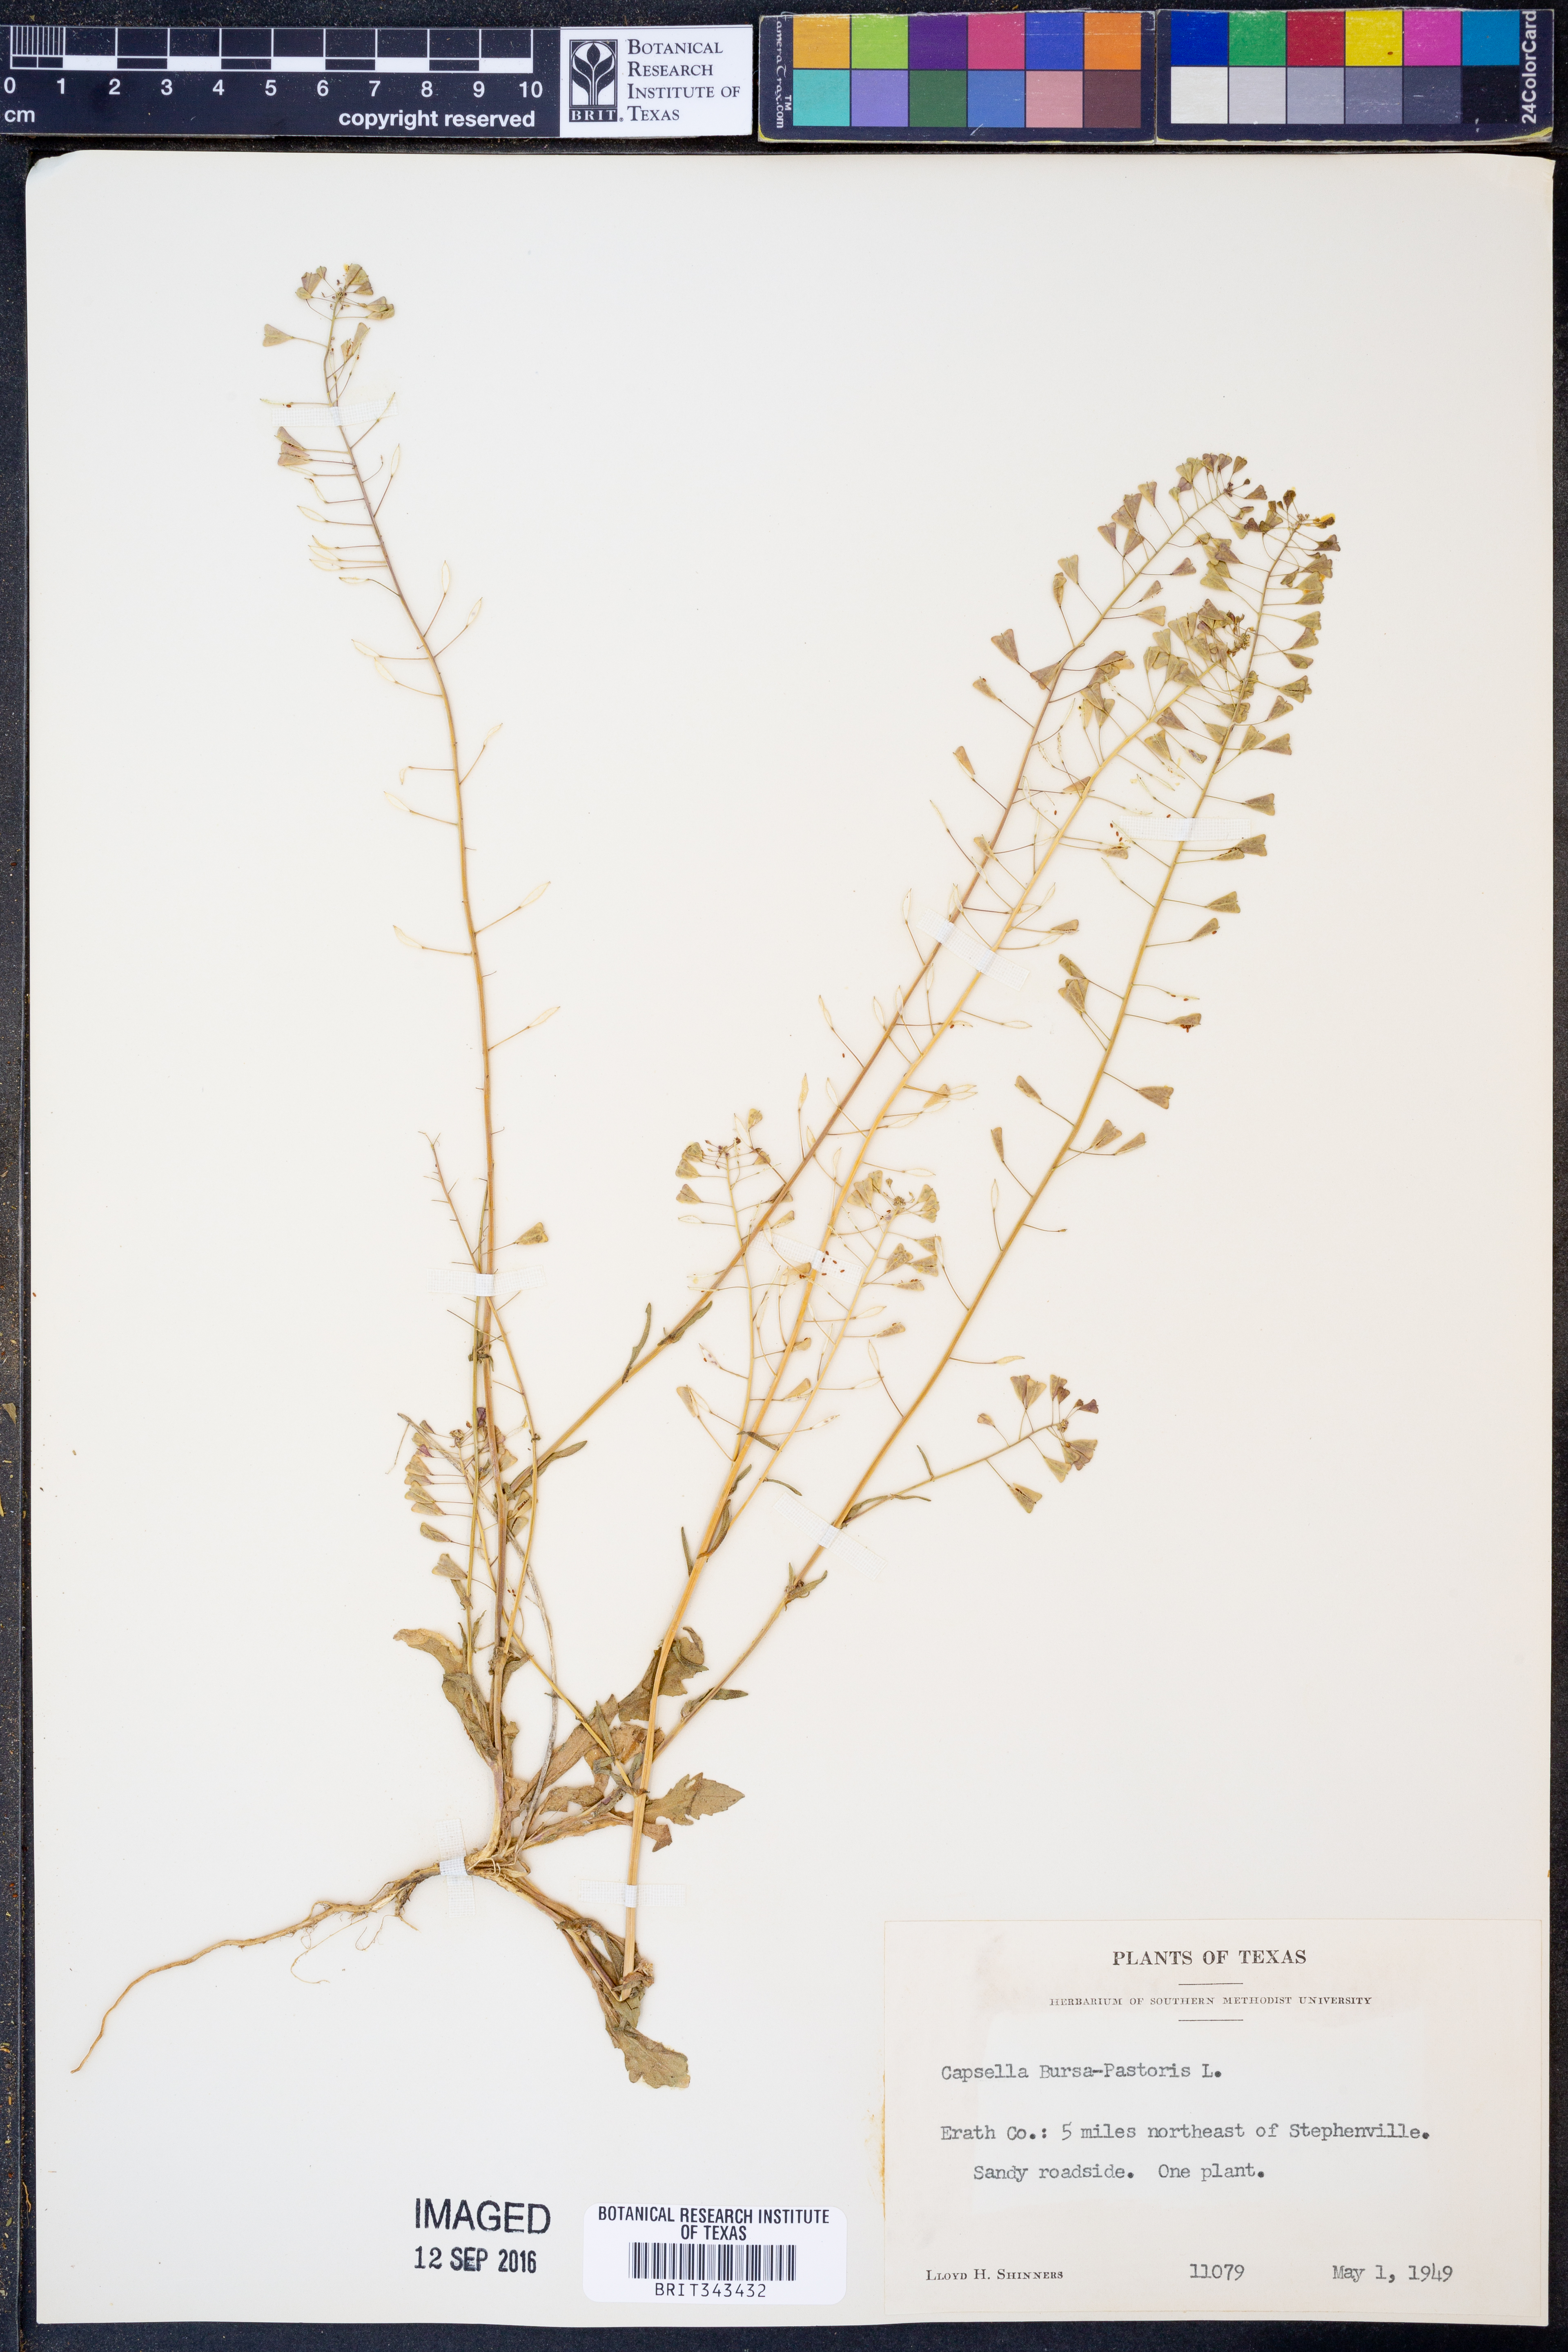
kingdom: Plantae
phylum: Tracheophyta
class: Magnoliopsida
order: Brassicales
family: Brassicaceae
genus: Capsella
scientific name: Capsella bursa-pastoris
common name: Shepherd's purse
